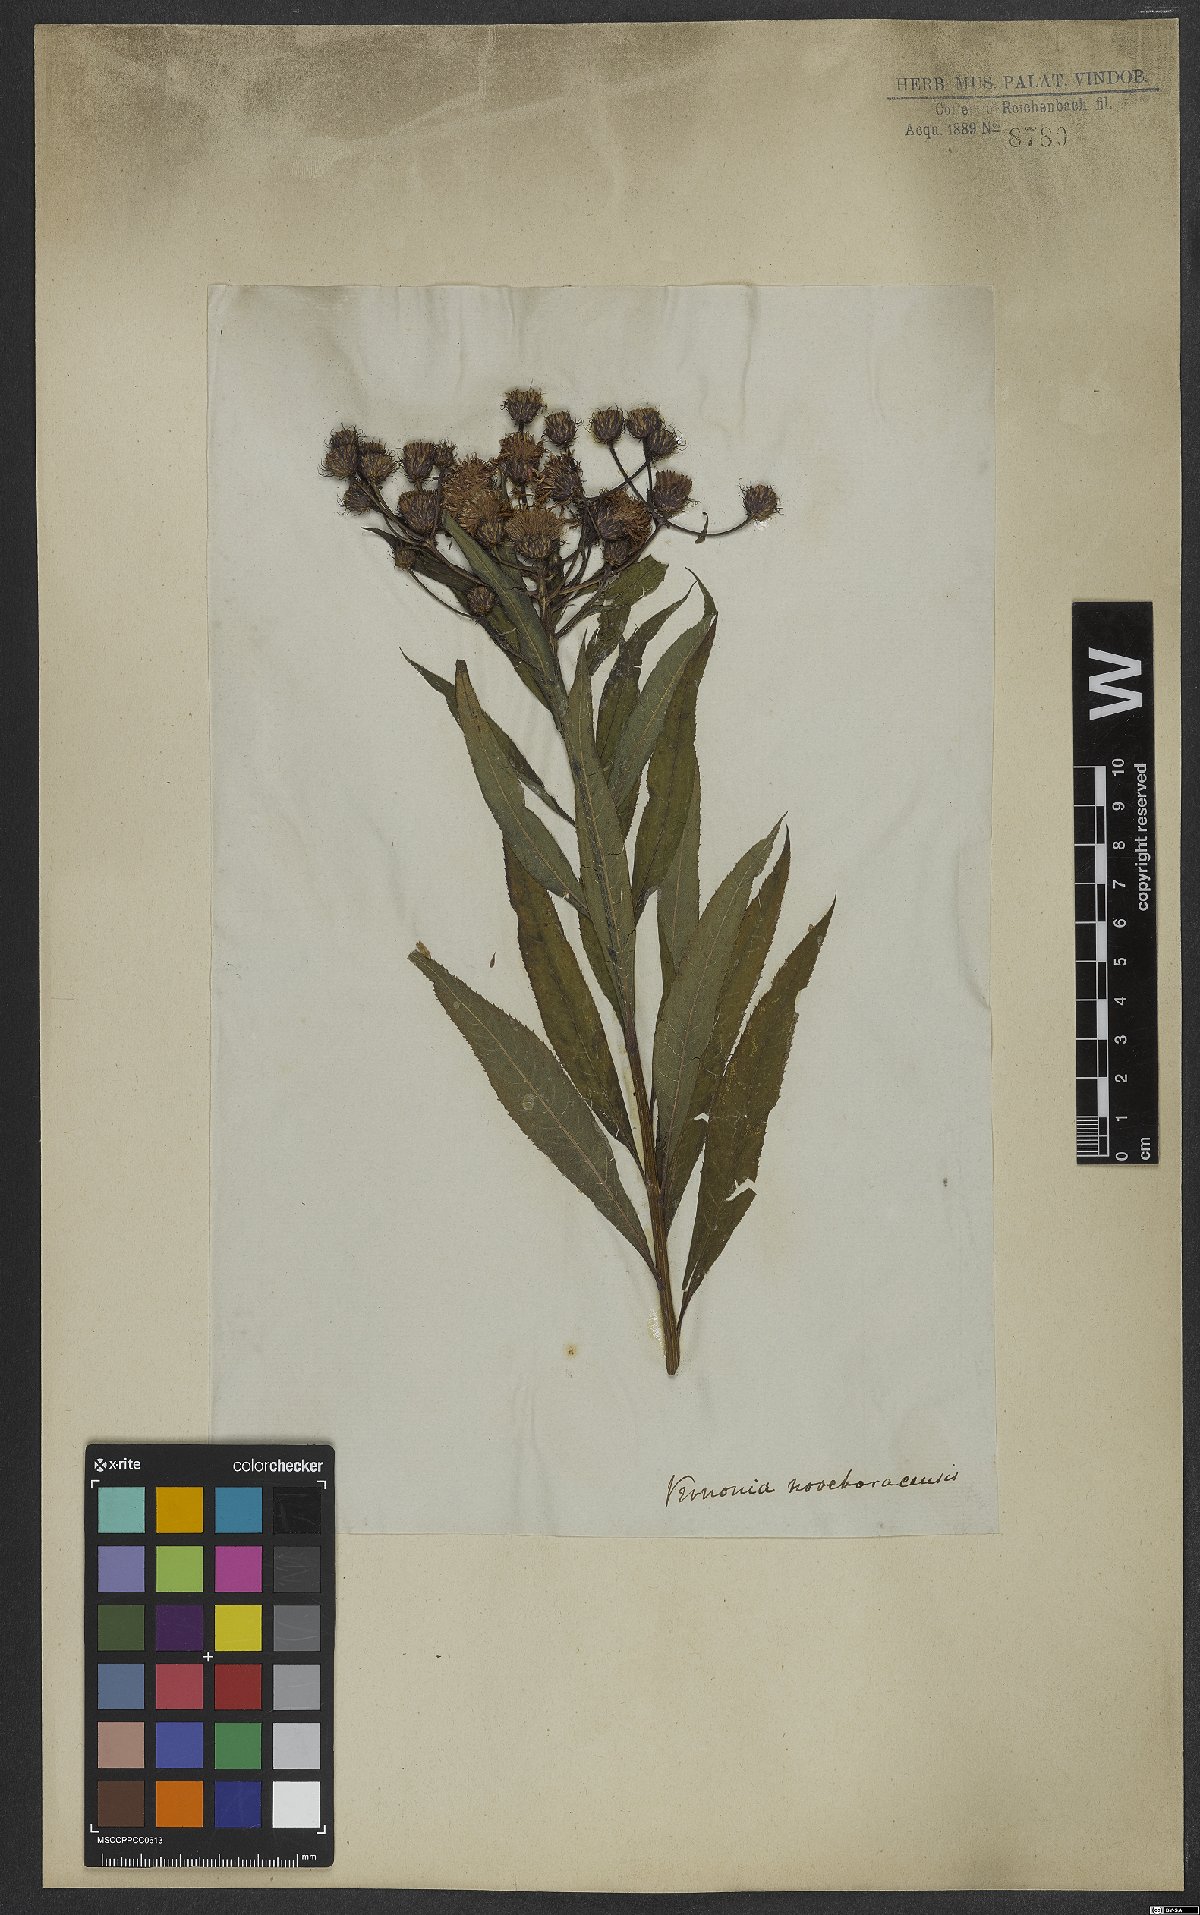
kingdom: Plantae
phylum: Tracheophyta
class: Magnoliopsida
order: Asterales
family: Asteraceae
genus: Vernonia
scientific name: Vernonia noveboracensis
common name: New york ironweed
